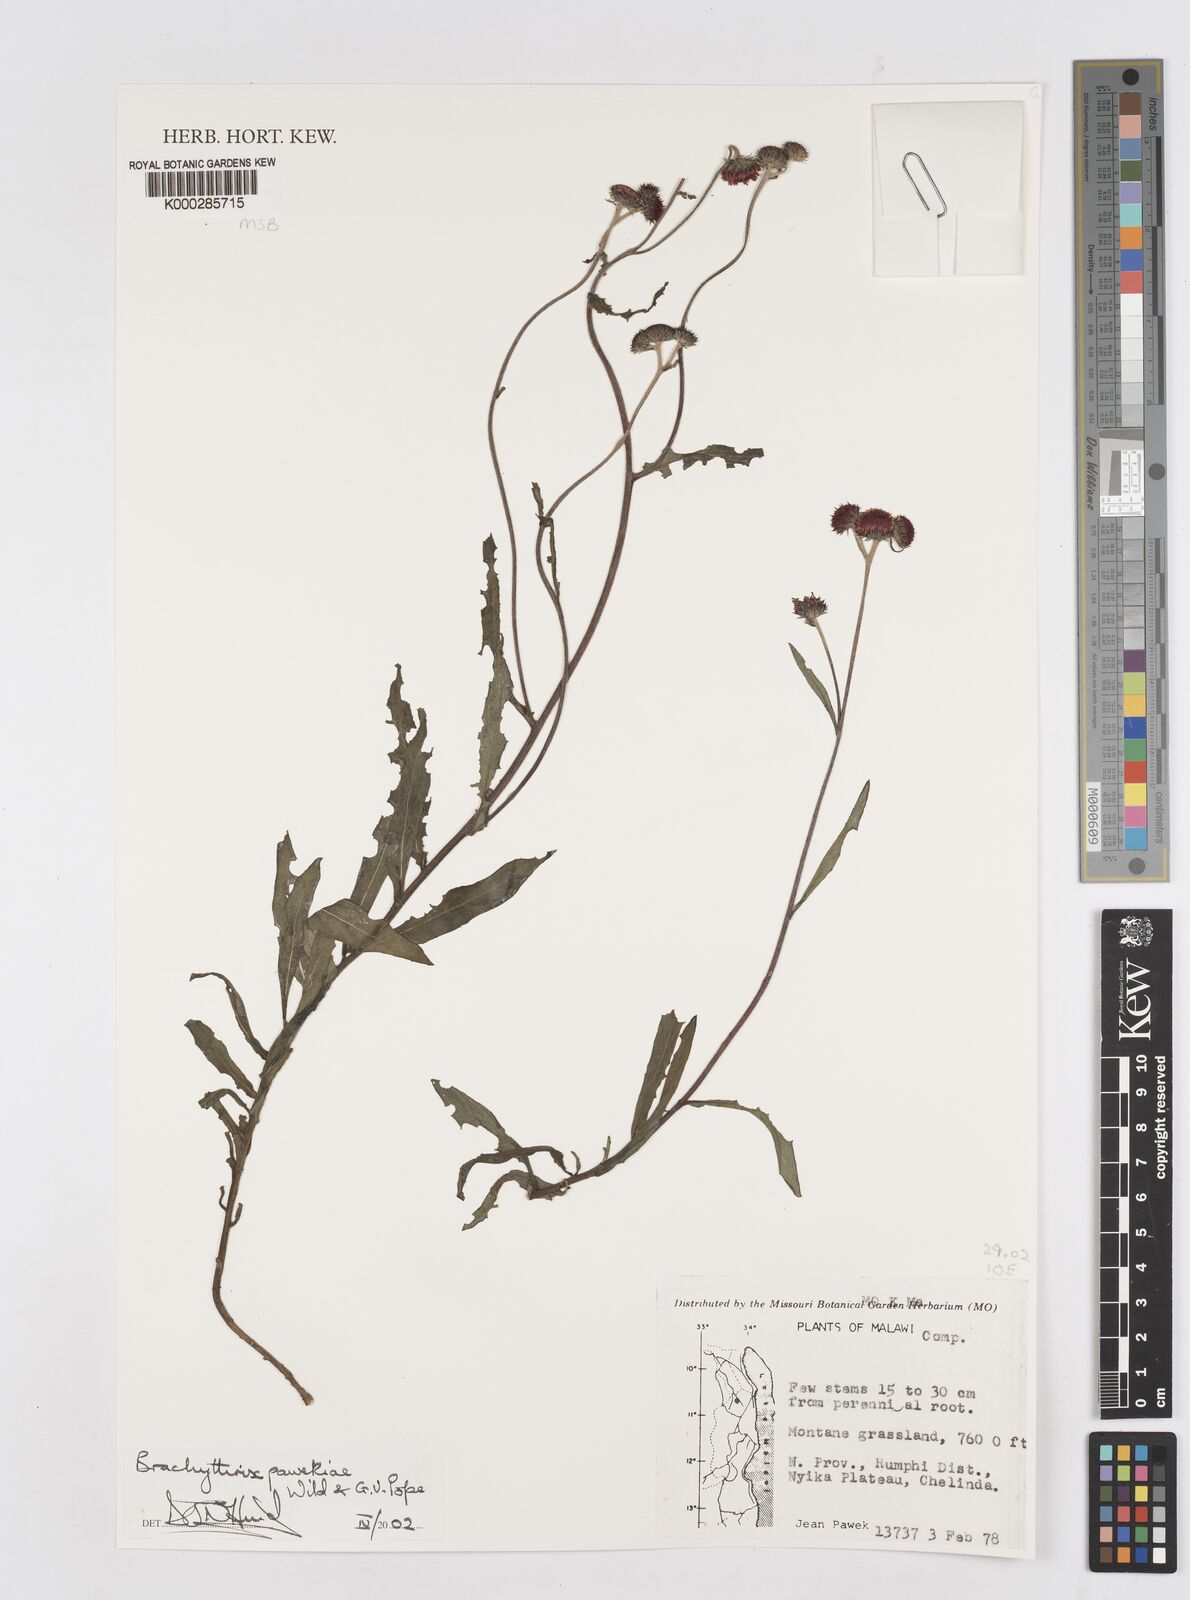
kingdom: Plantae
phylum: Tracheophyta
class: Magnoliopsida
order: Asterales
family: Asteraceae
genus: Brachythrix
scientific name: Brachythrix pawekiae
